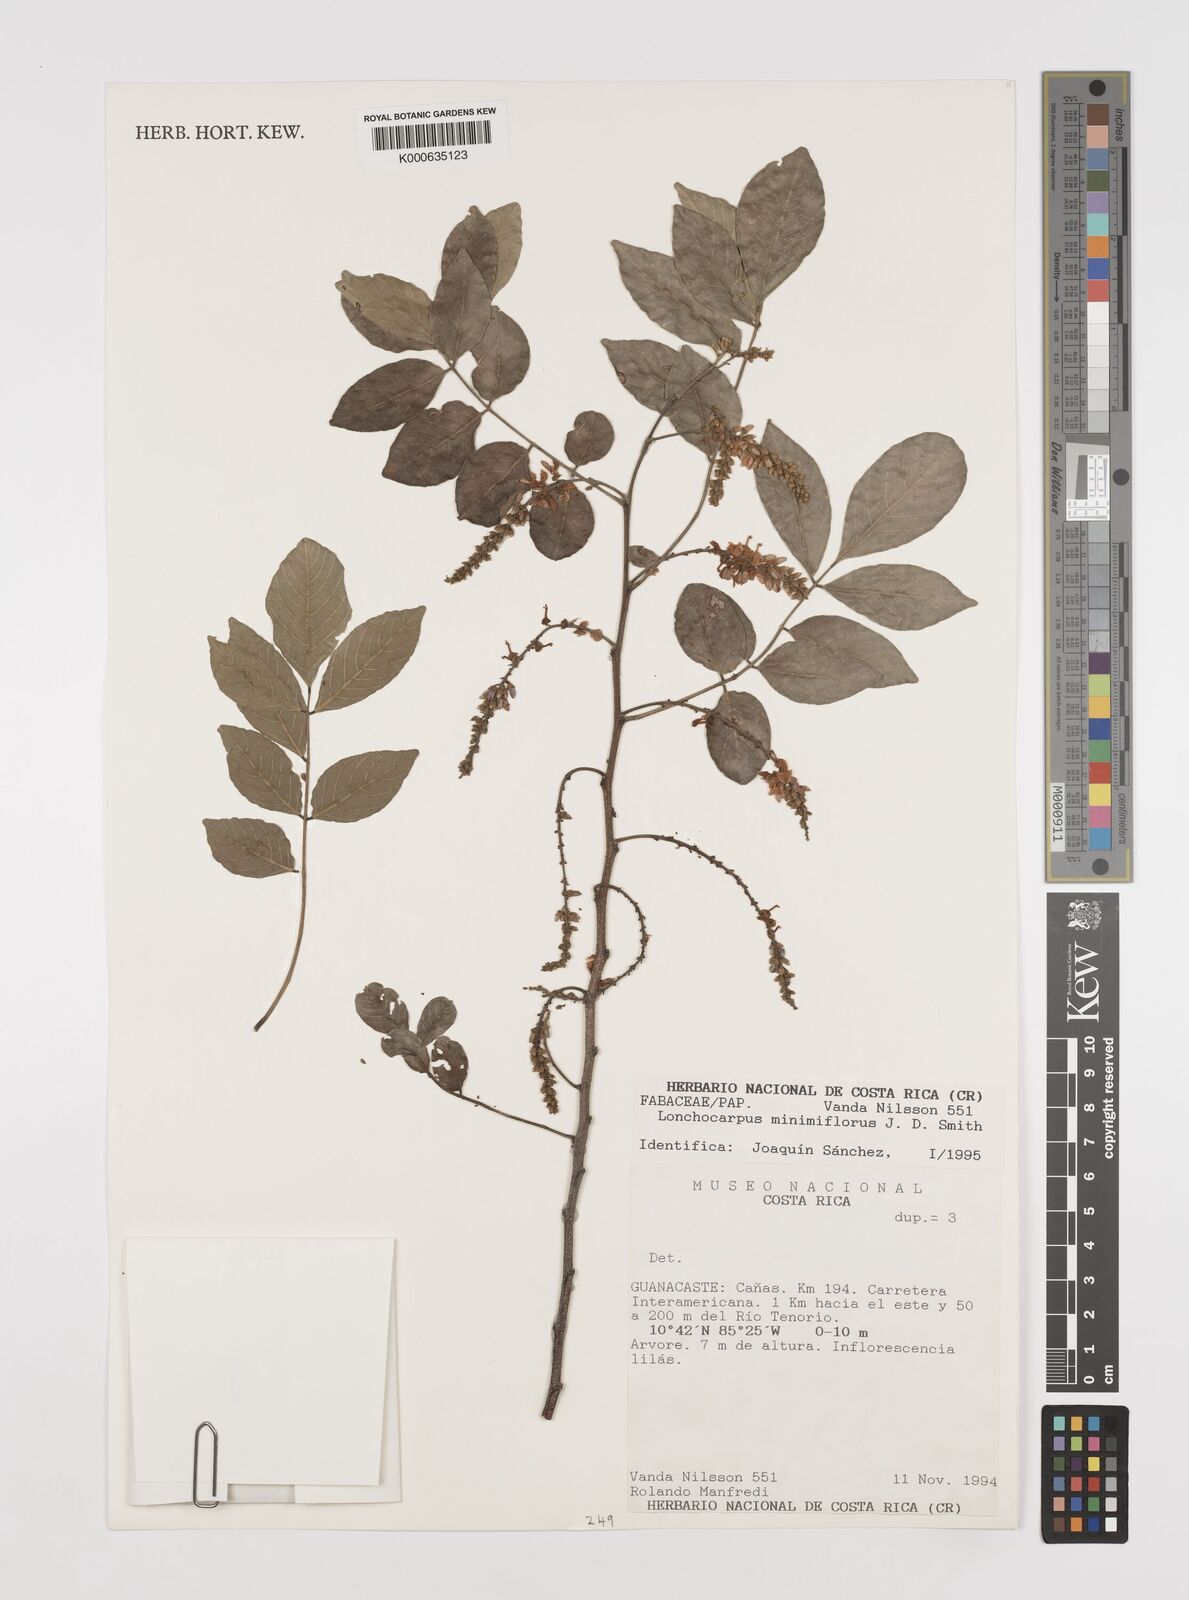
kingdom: Plantae
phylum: Tracheophyta
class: Magnoliopsida
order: Fabales
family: Fabaceae
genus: Lonchocarpus
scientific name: Lonchocarpus
